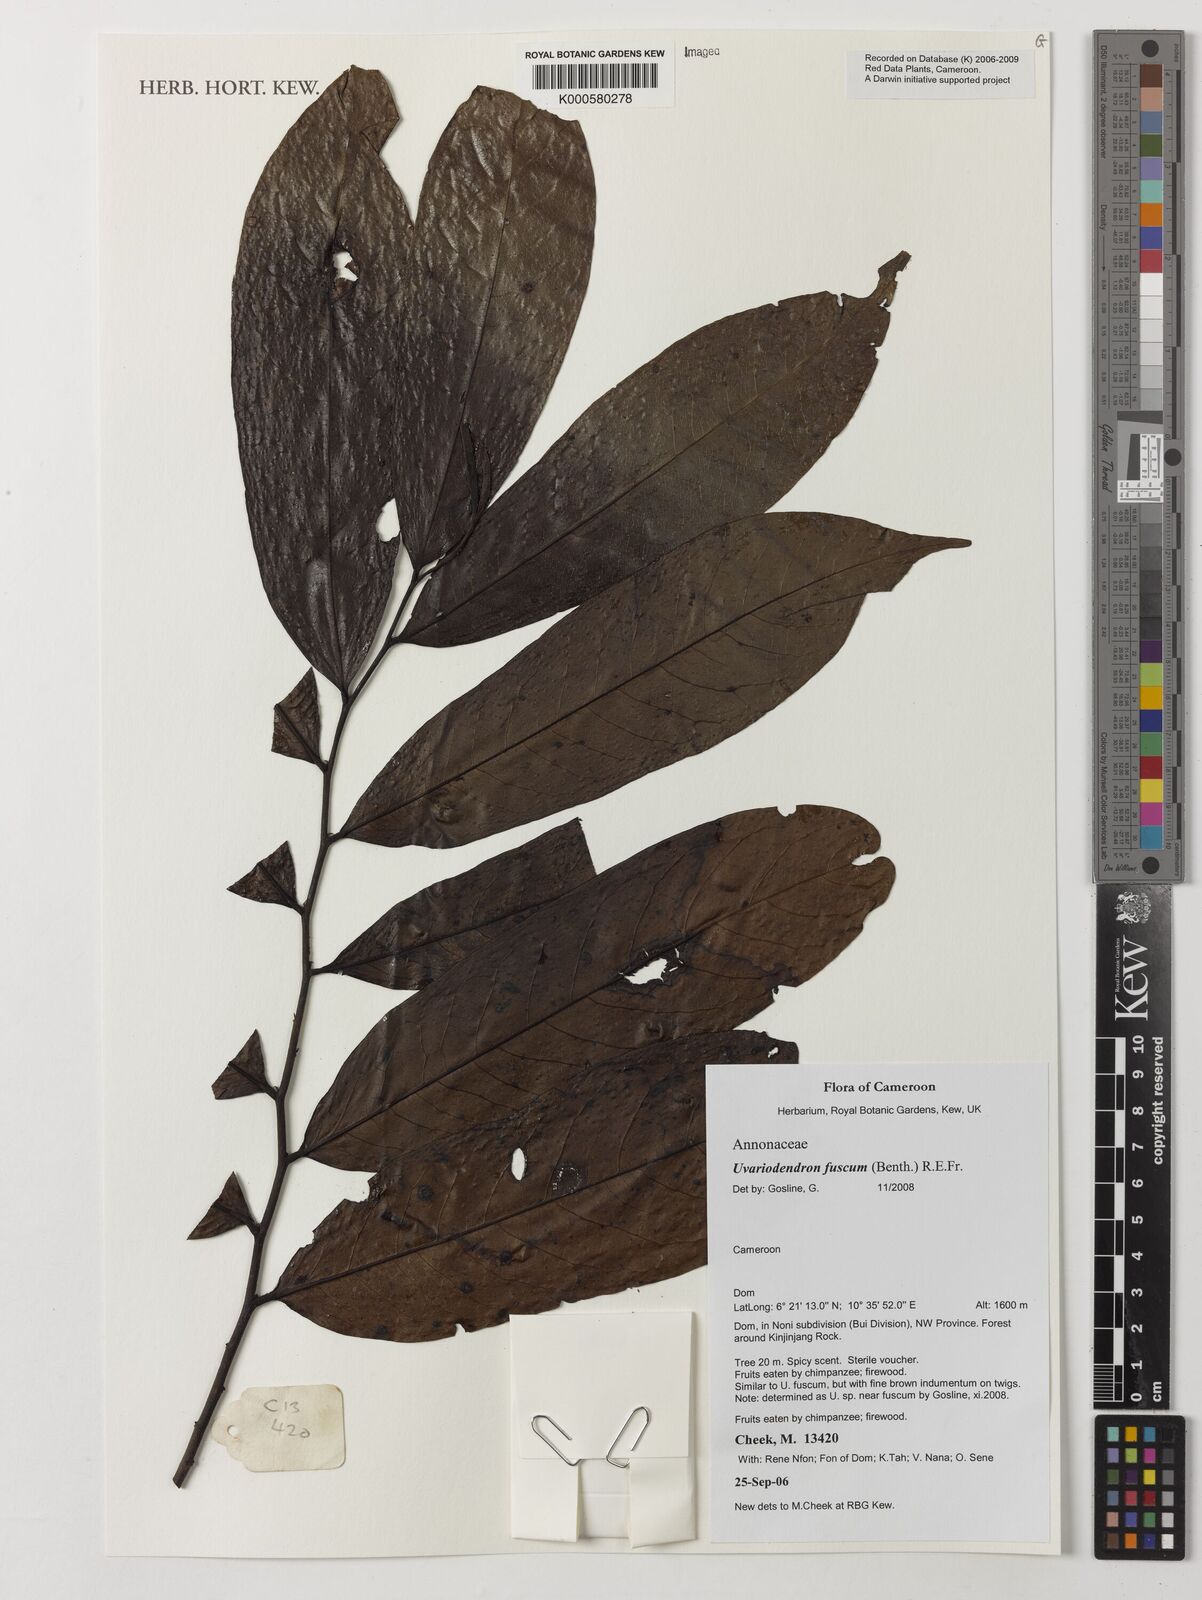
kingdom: Plantae
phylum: Tracheophyta
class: Magnoliopsida
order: Magnoliales
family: Annonaceae
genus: Uvariodendron
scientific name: Uvariodendron fuscum
